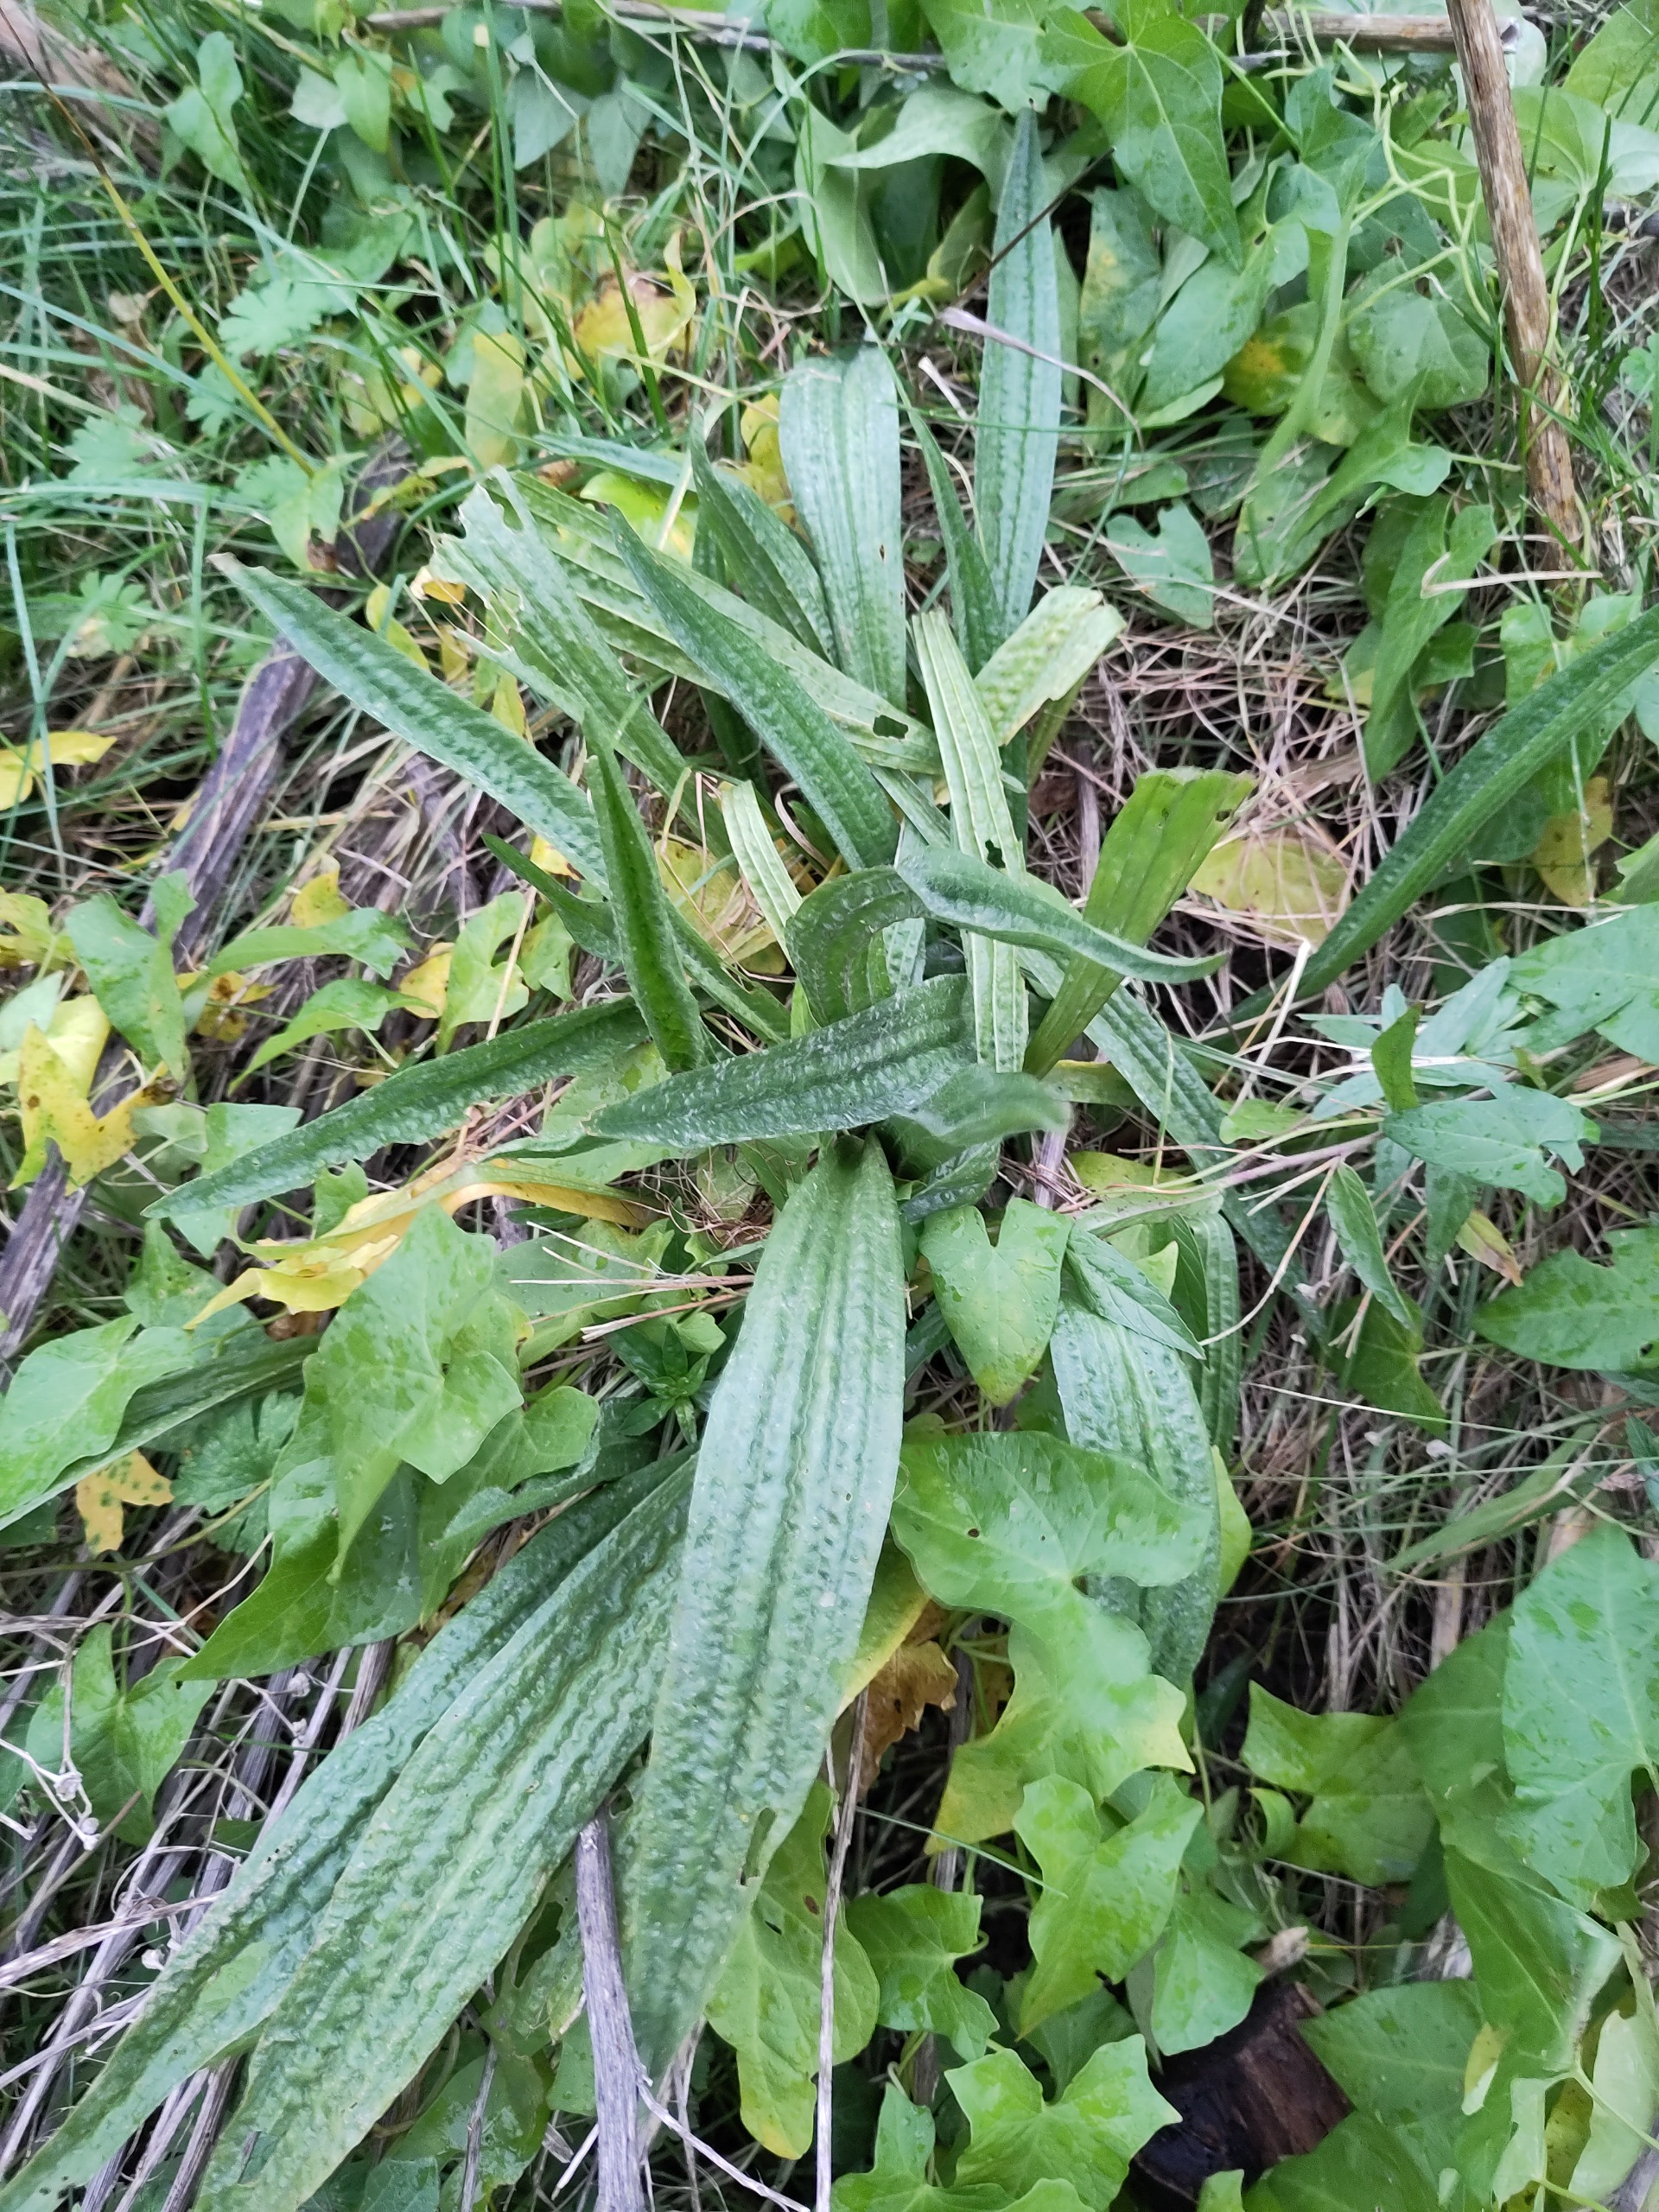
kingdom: Plantae
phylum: Tracheophyta
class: Magnoliopsida
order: Lamiales
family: Plantaginaceae
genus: Plantago
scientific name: Plantago lanceolata
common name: Lancet-vejbred
